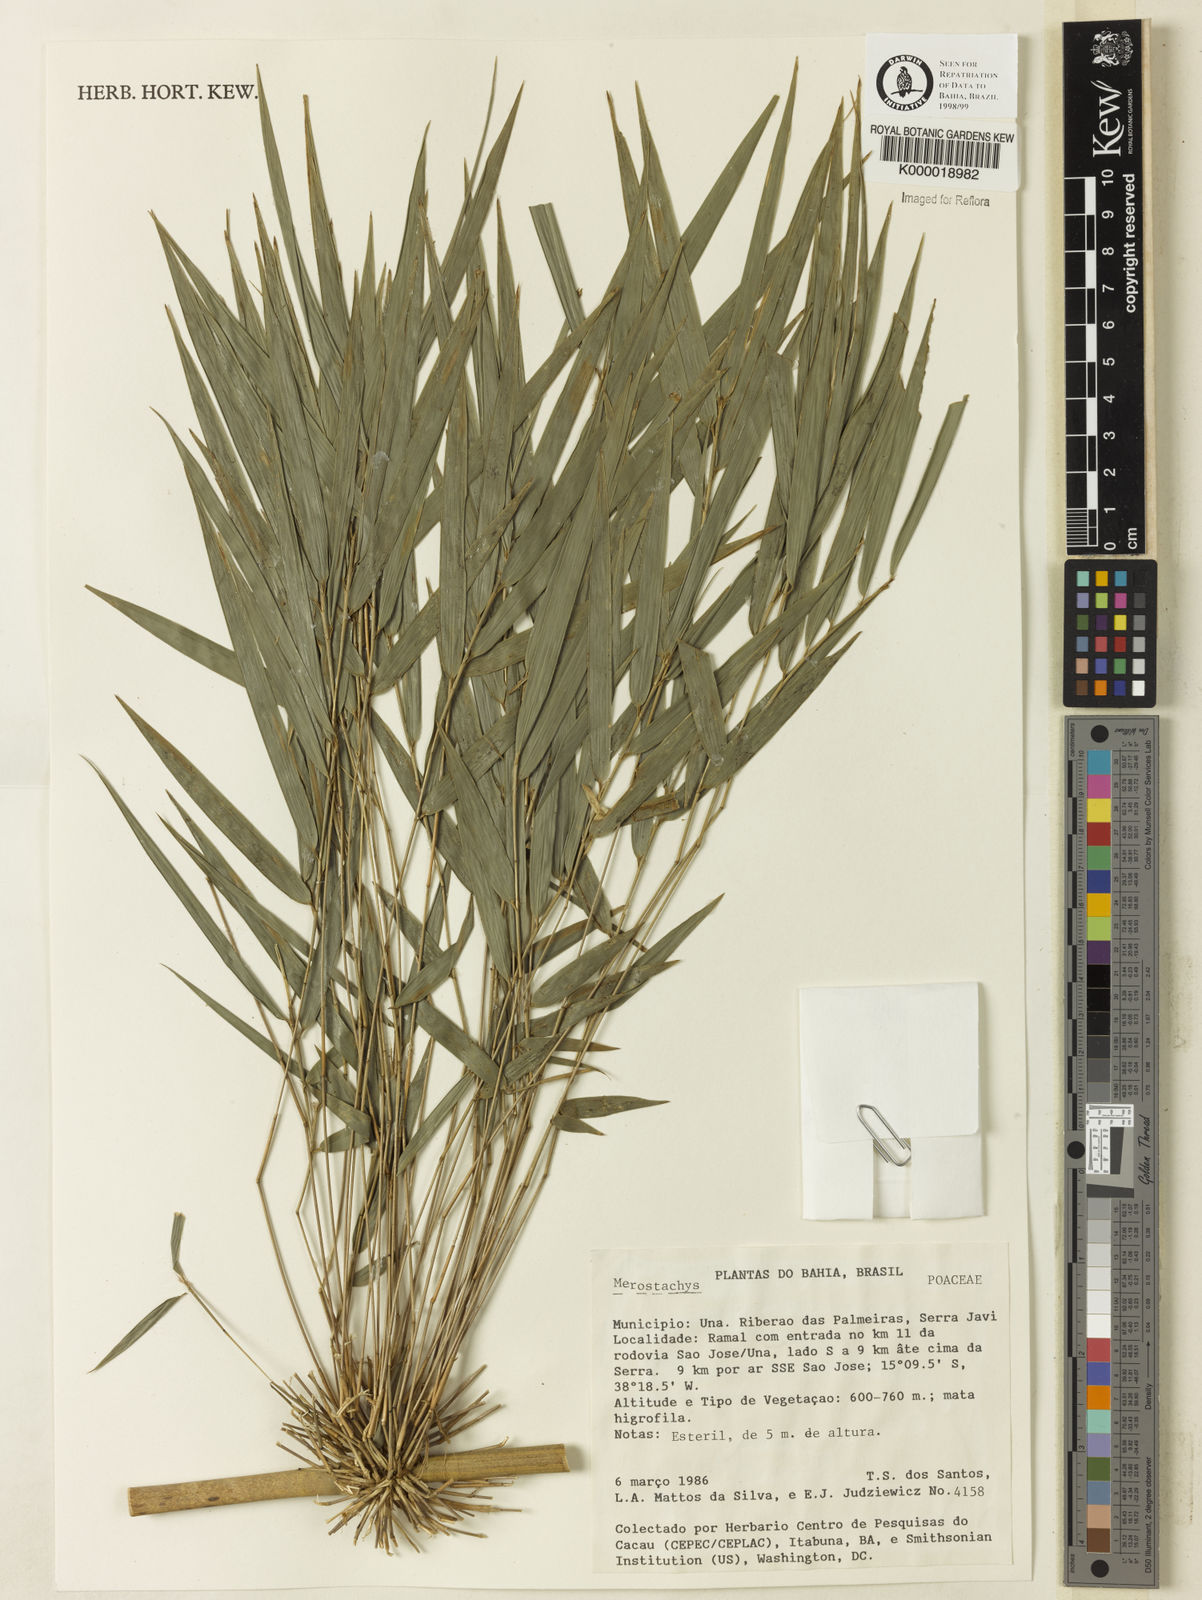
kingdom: Plantae
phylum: Tracheophyta
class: Liliopsida
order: Poales
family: Poaceae
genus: Merostachys
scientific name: Merostachys
